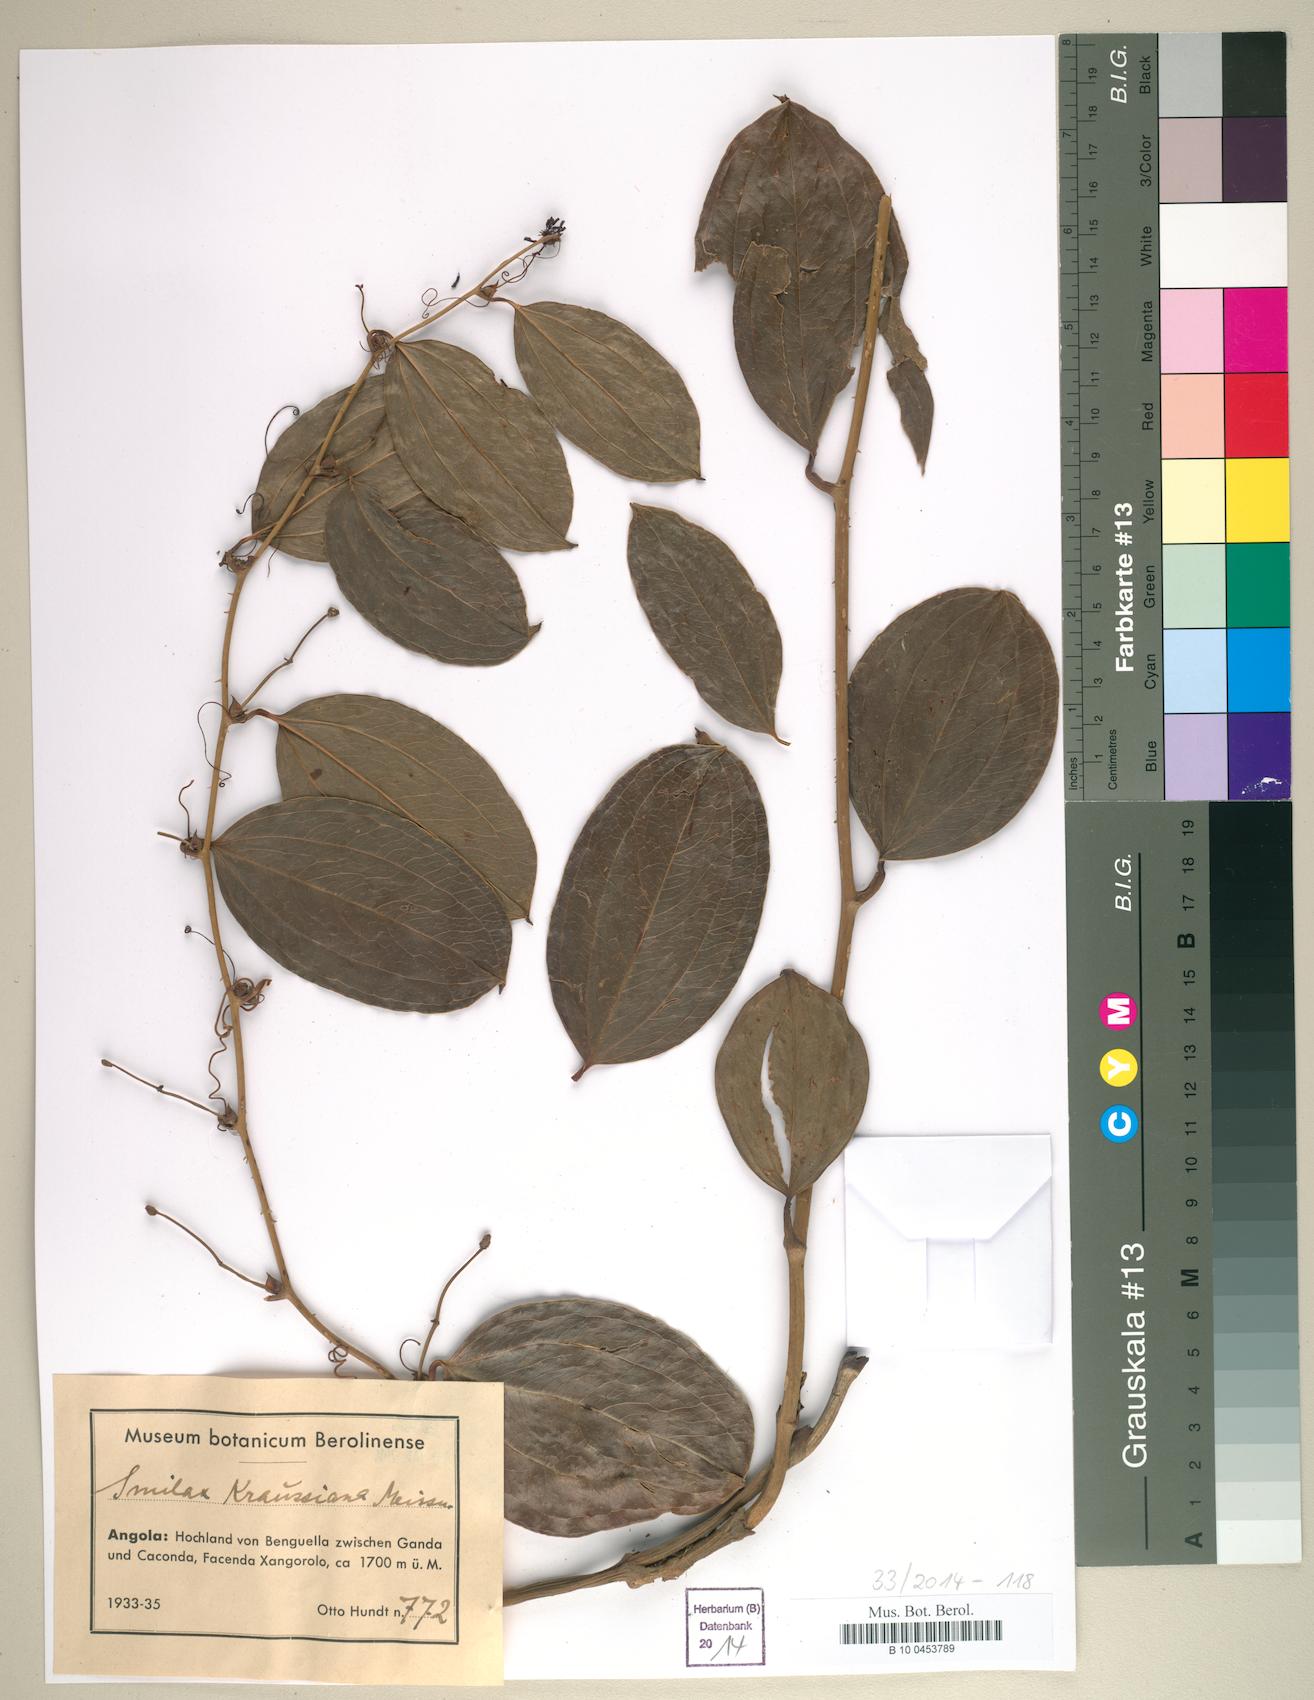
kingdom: Plantae
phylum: Tracheophyta
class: Liliopsida
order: Liliales
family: Smilacaceae
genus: Smilax
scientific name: Smilax anceps
